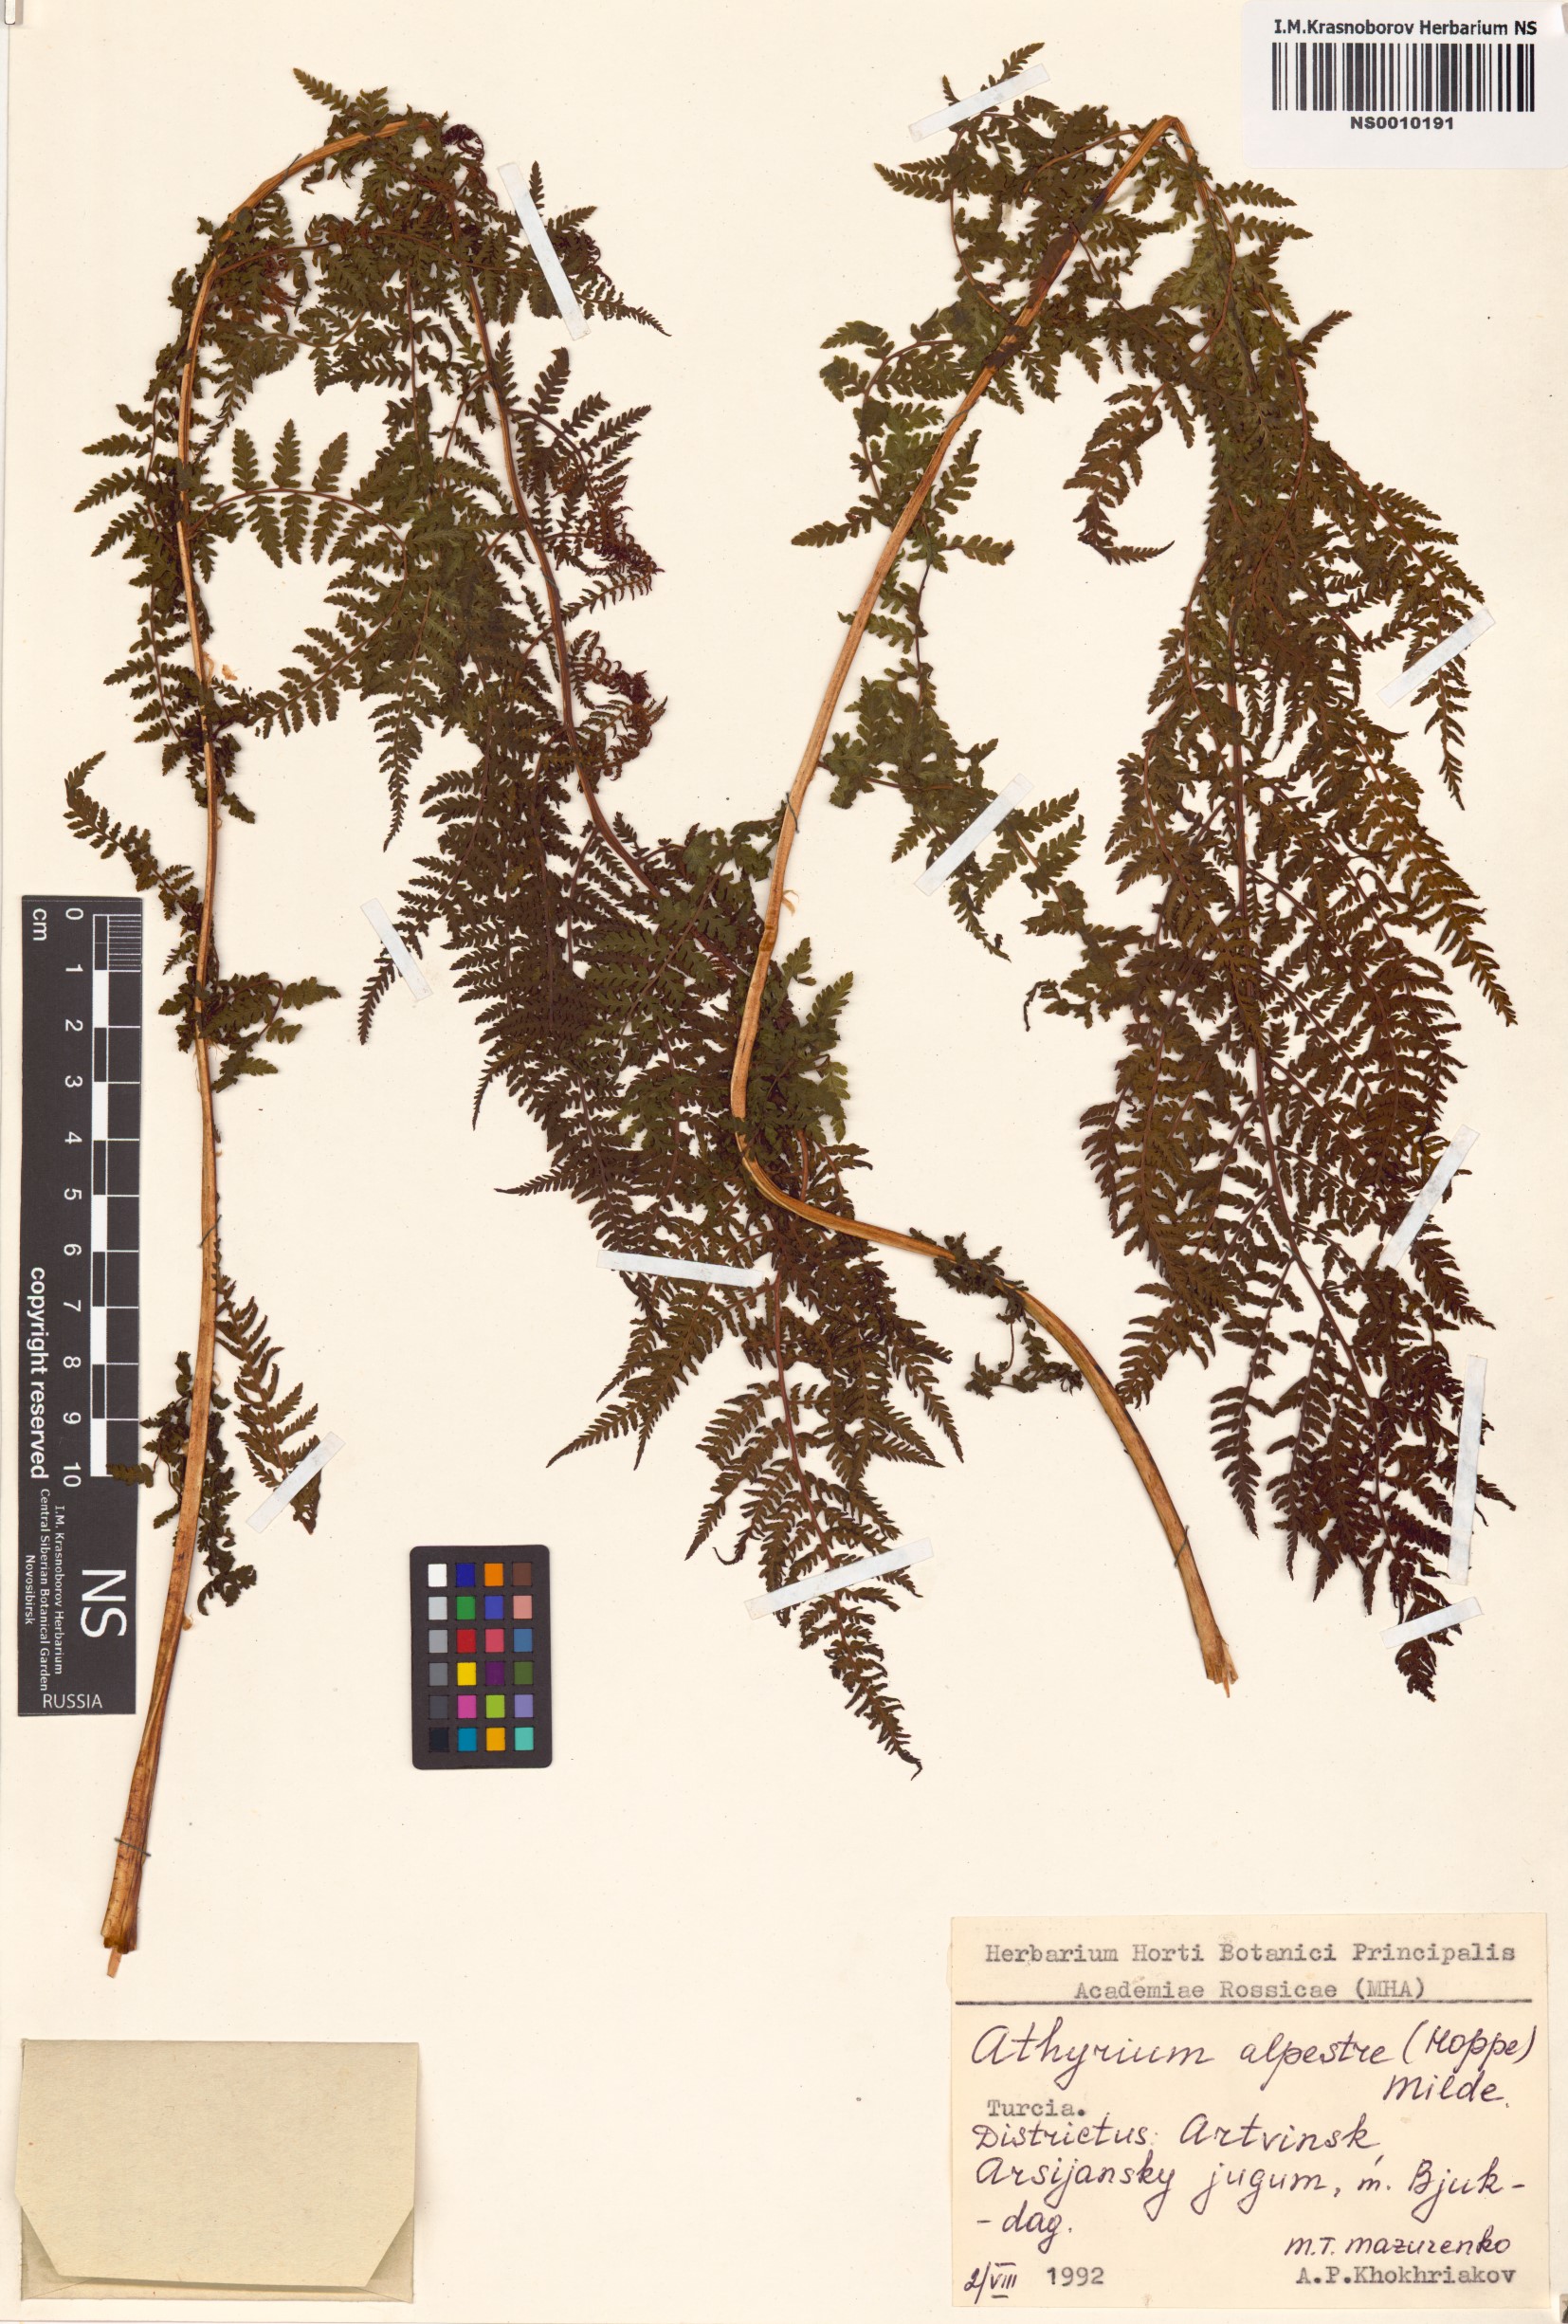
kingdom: Plantae
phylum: Tracheophyta
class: Polypodiopsida
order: Polypodiales
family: Athyriaceae
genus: Pseudathyrium
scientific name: Pseudathyrium alpestre
